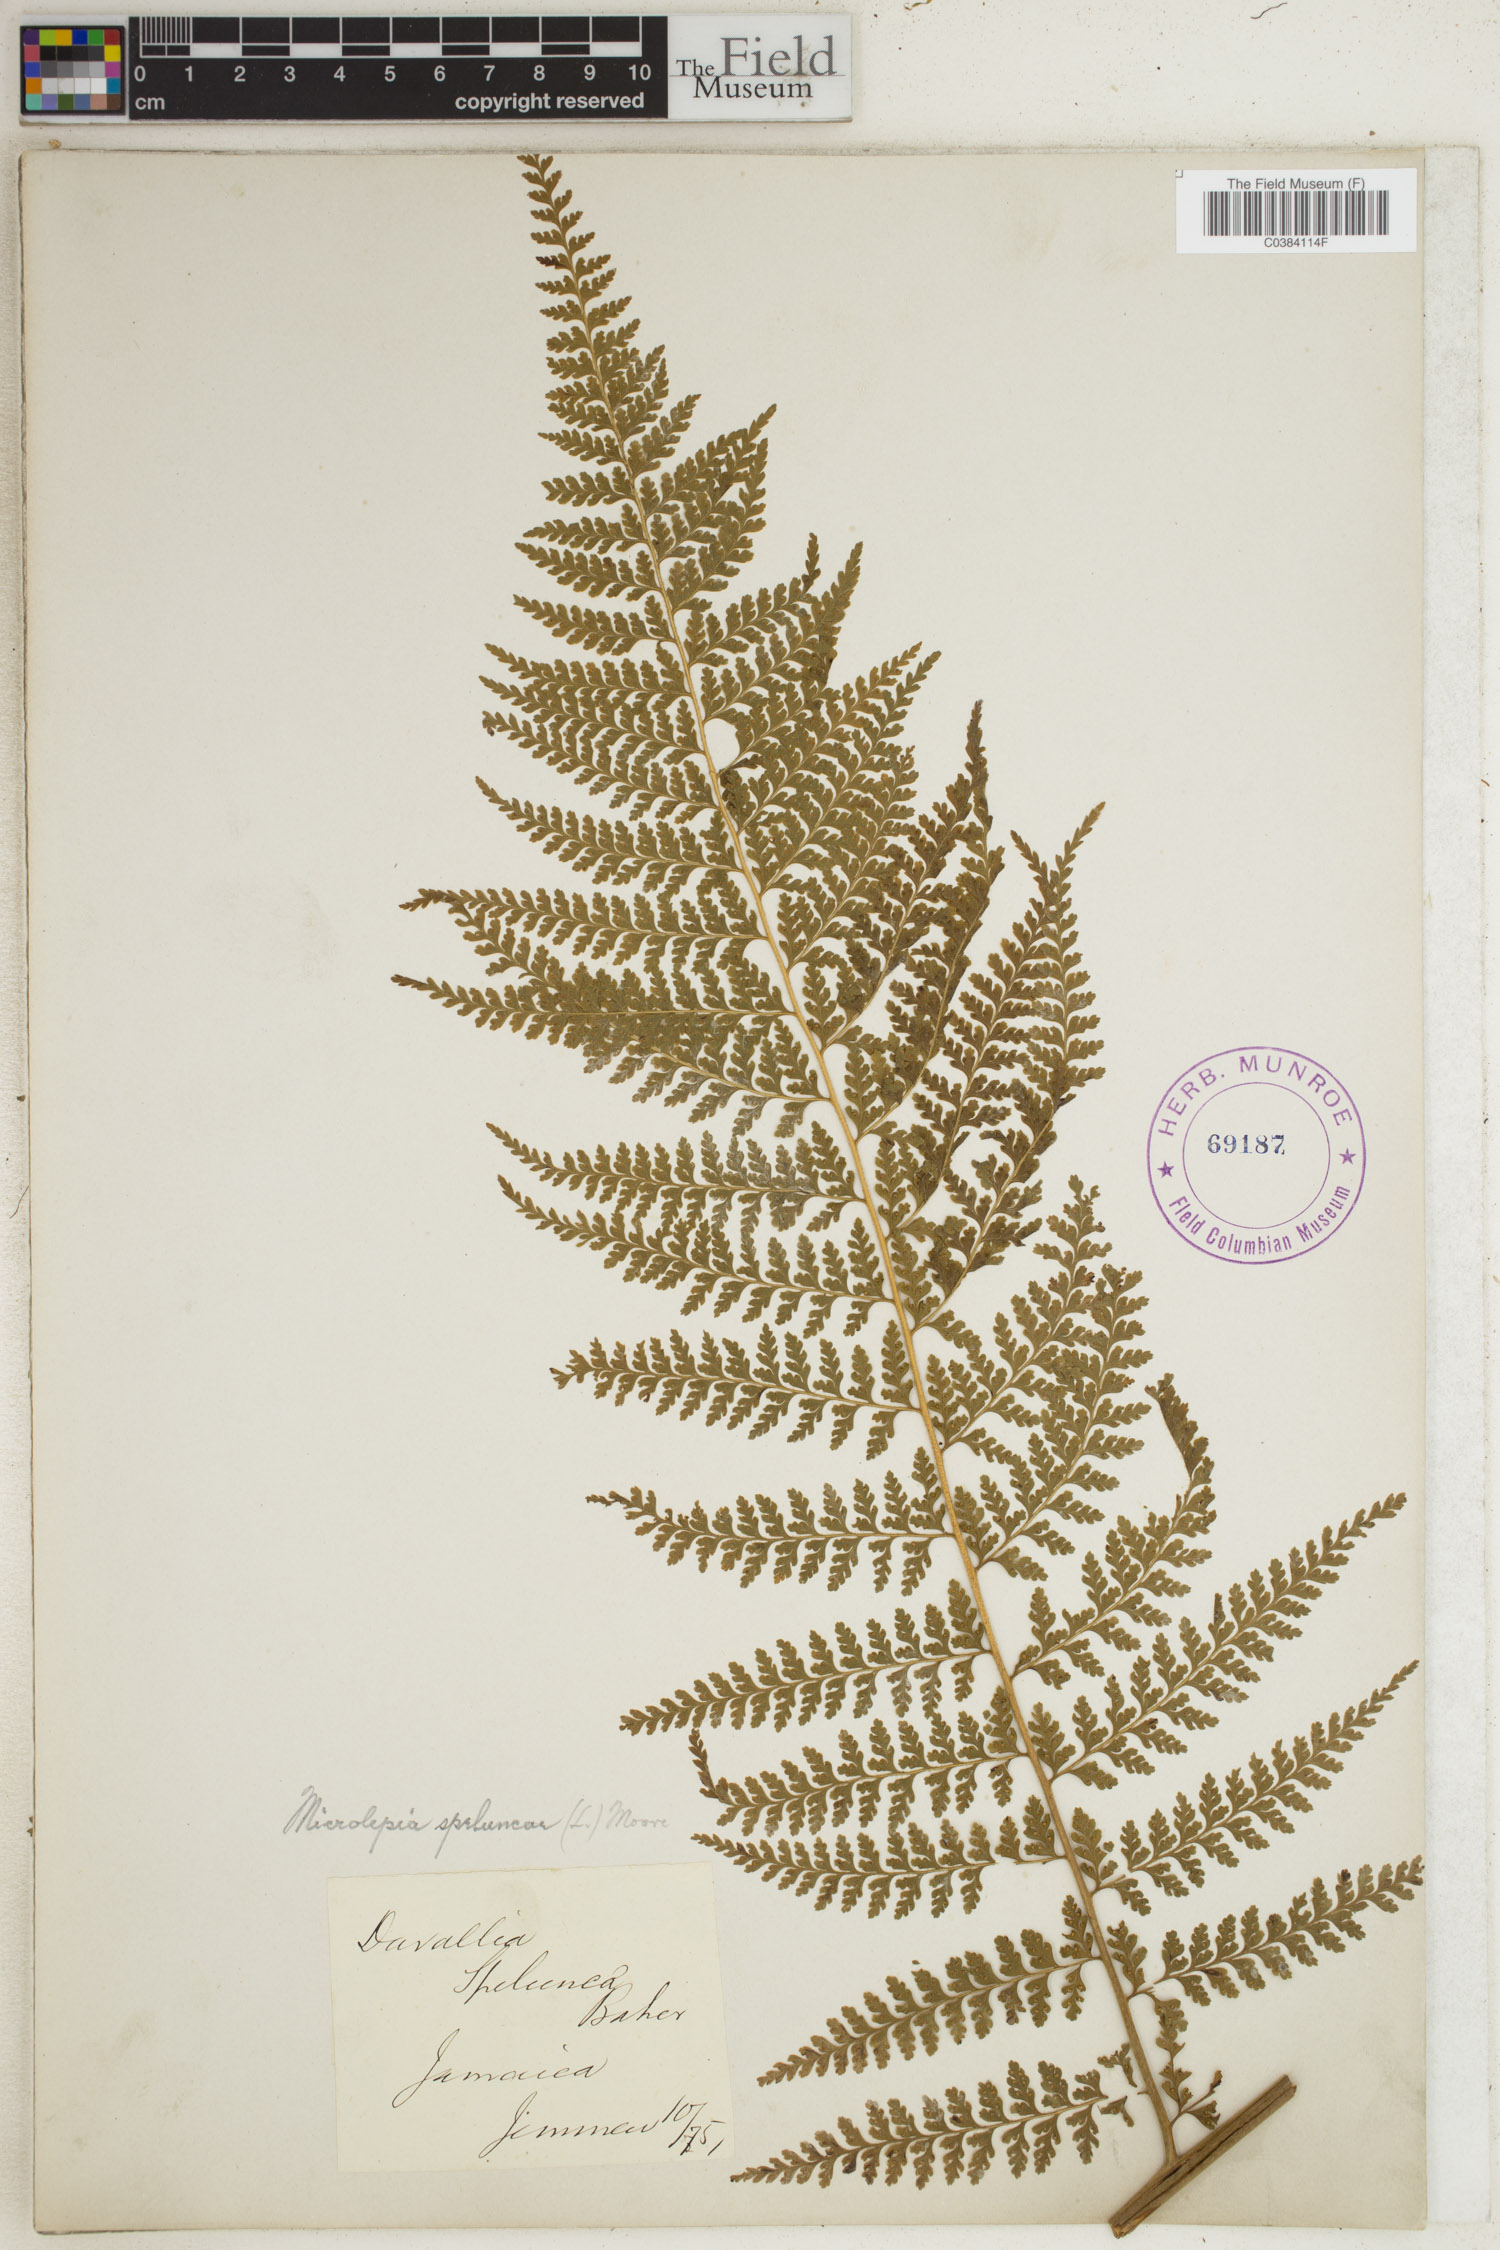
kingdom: Plantae
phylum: Tracheophyta
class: Polypodiopsida
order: Polypodiales
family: Dennstaedtiaceae
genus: Microlepia
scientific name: Microlepia speluncae
